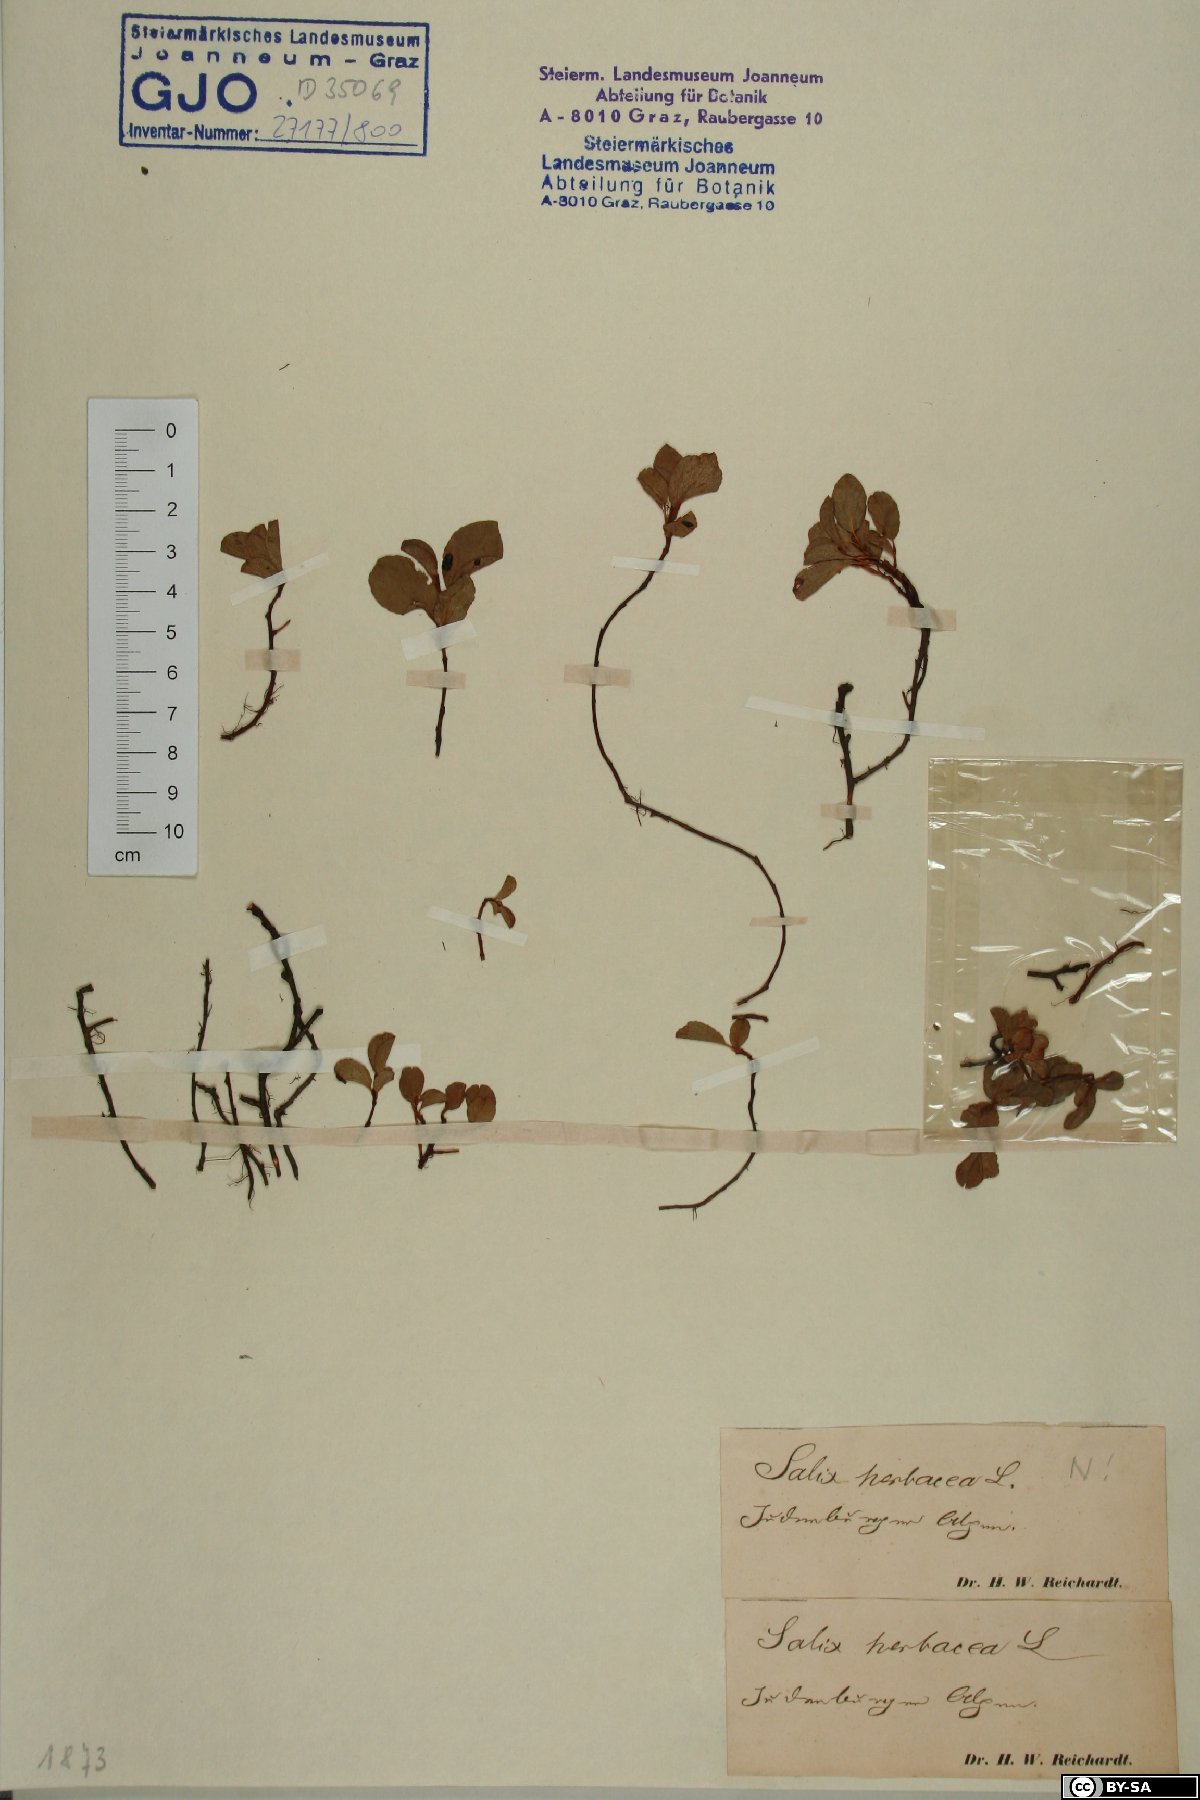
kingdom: Plantae
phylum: Tracheophyta
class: Magnoliopsida
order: Malpighiales
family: Salicaceae
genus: Salix
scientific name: Salix herbacea
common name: Dwarf willow
